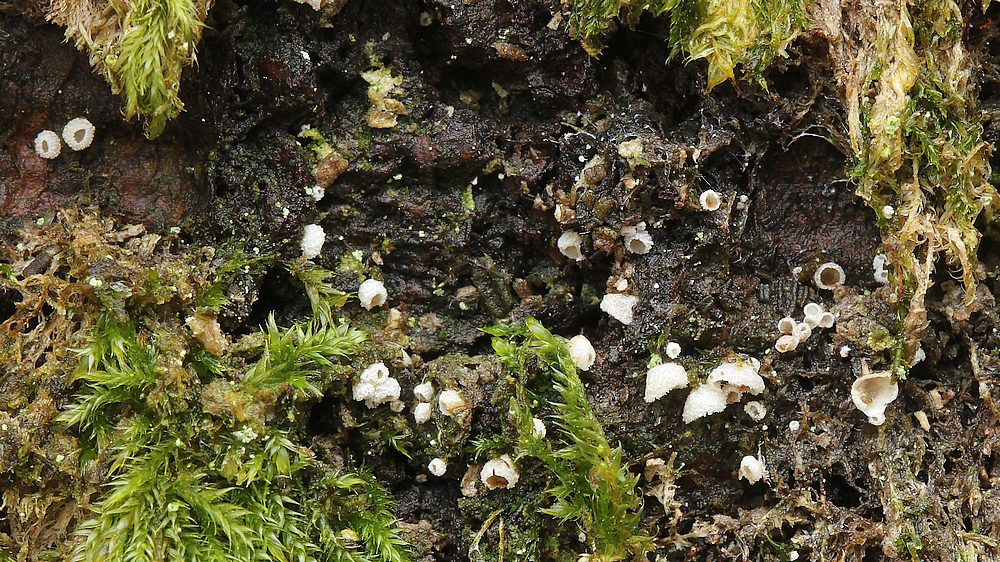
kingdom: Fungi
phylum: Basidiomycota
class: Agaricomycetes
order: Agaricales
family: Chromocyphellaceae
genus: Chromocyphella
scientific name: Chromocyphella muscicola
